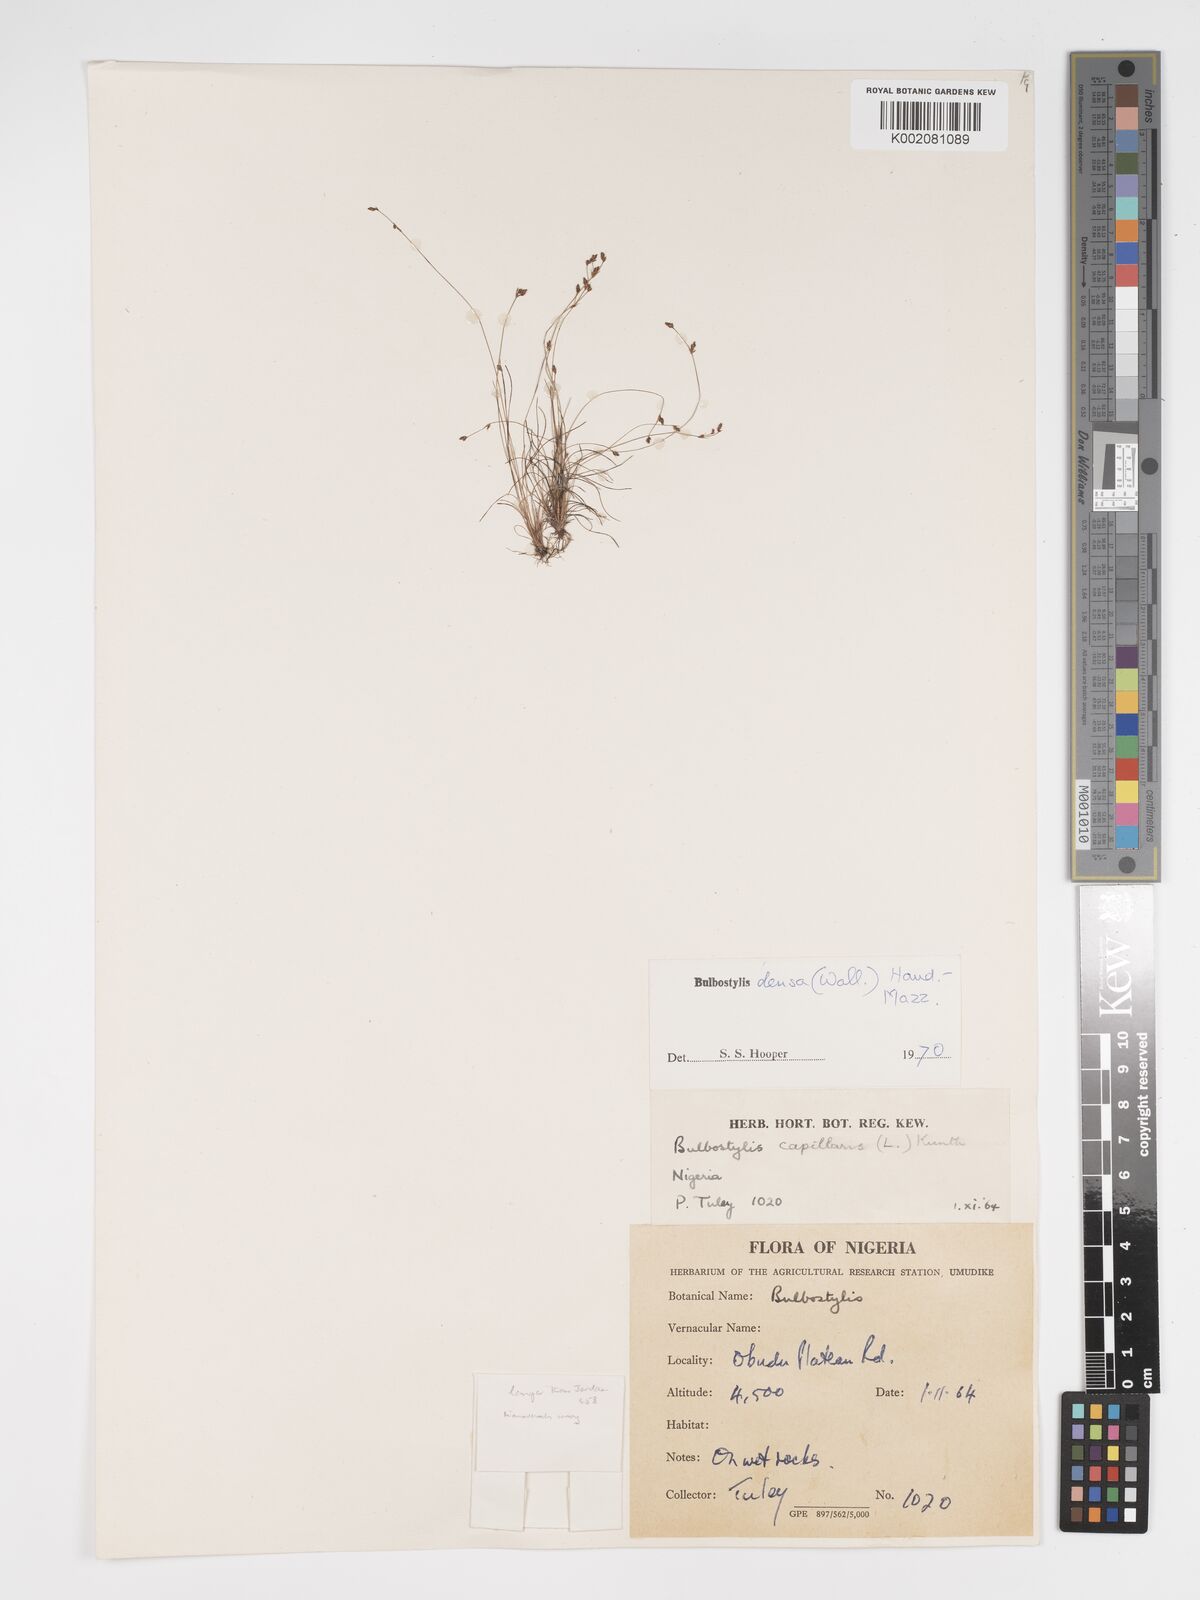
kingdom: Plantae
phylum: Tracheophyta
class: Liliopsida
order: Poales
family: Cyperaceae
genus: Bulbostylis
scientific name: Bulbostylis densa
